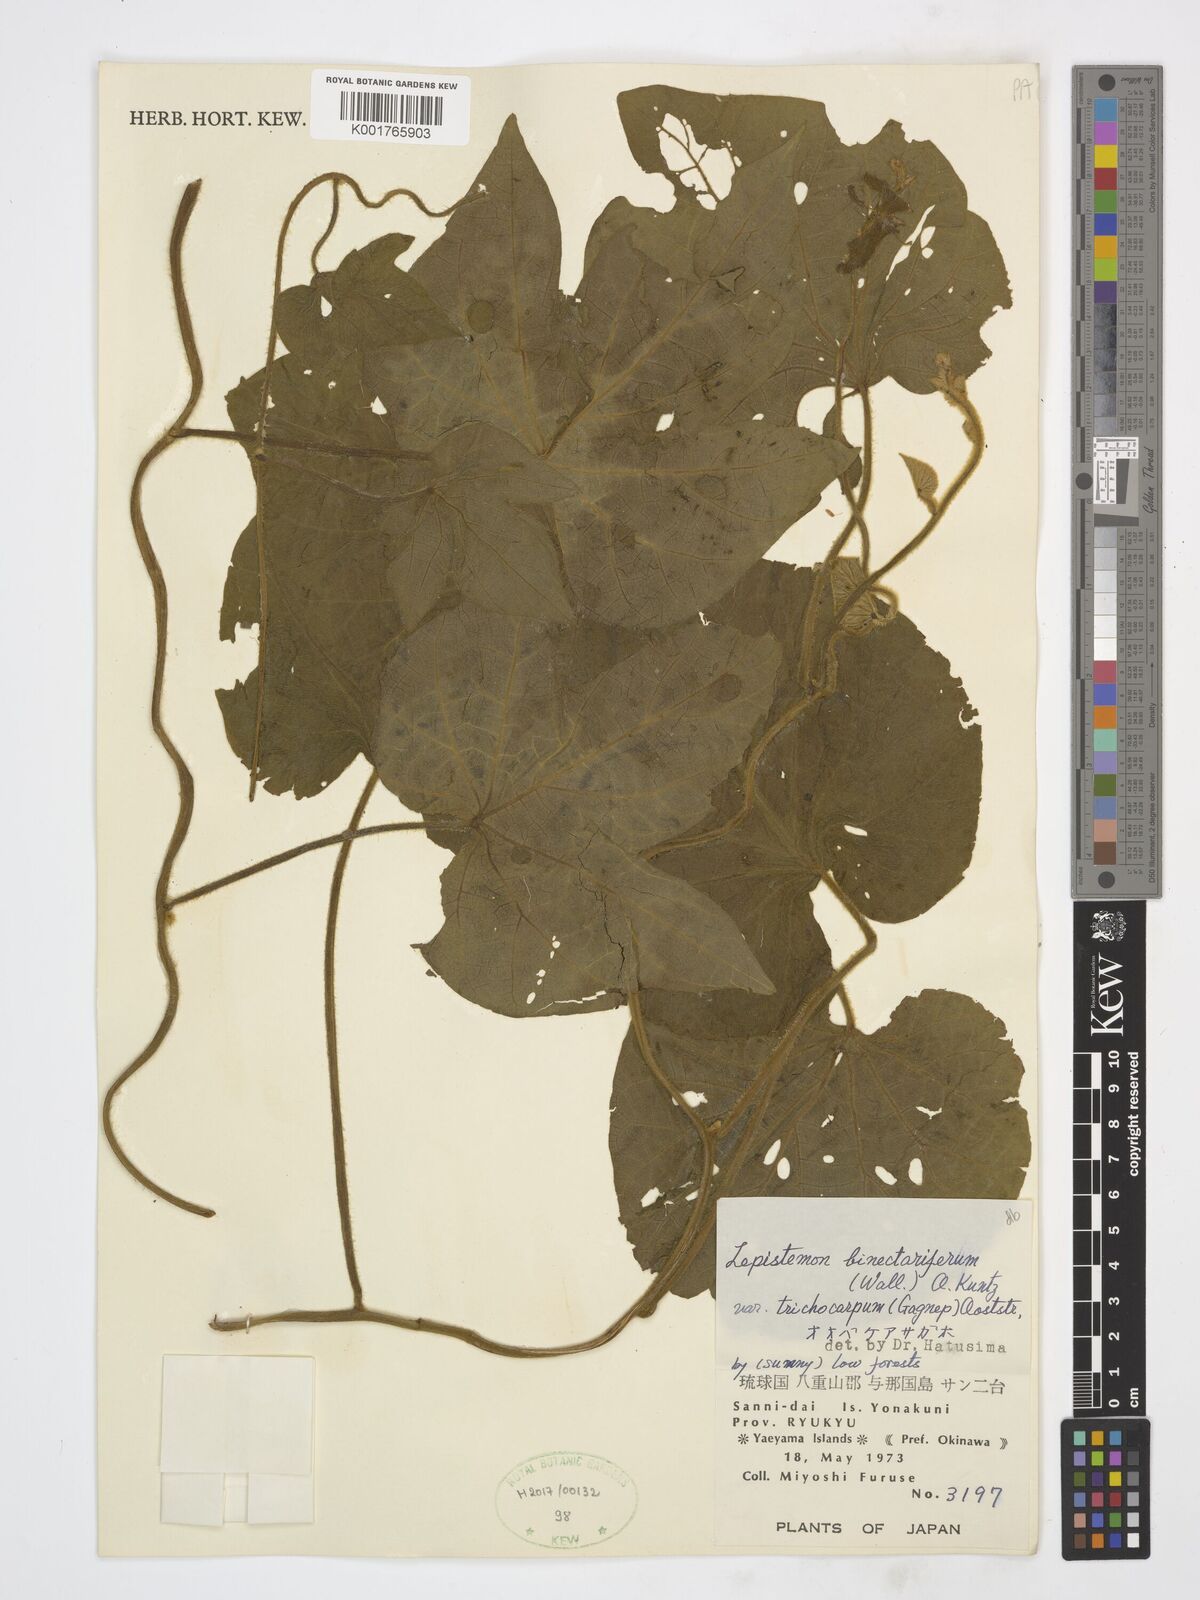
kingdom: Plantae
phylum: Tracheophyta
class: Magnoliopsida
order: Solanales
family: Convolvulaceae
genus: Lepistemon
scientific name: Lepistemon
